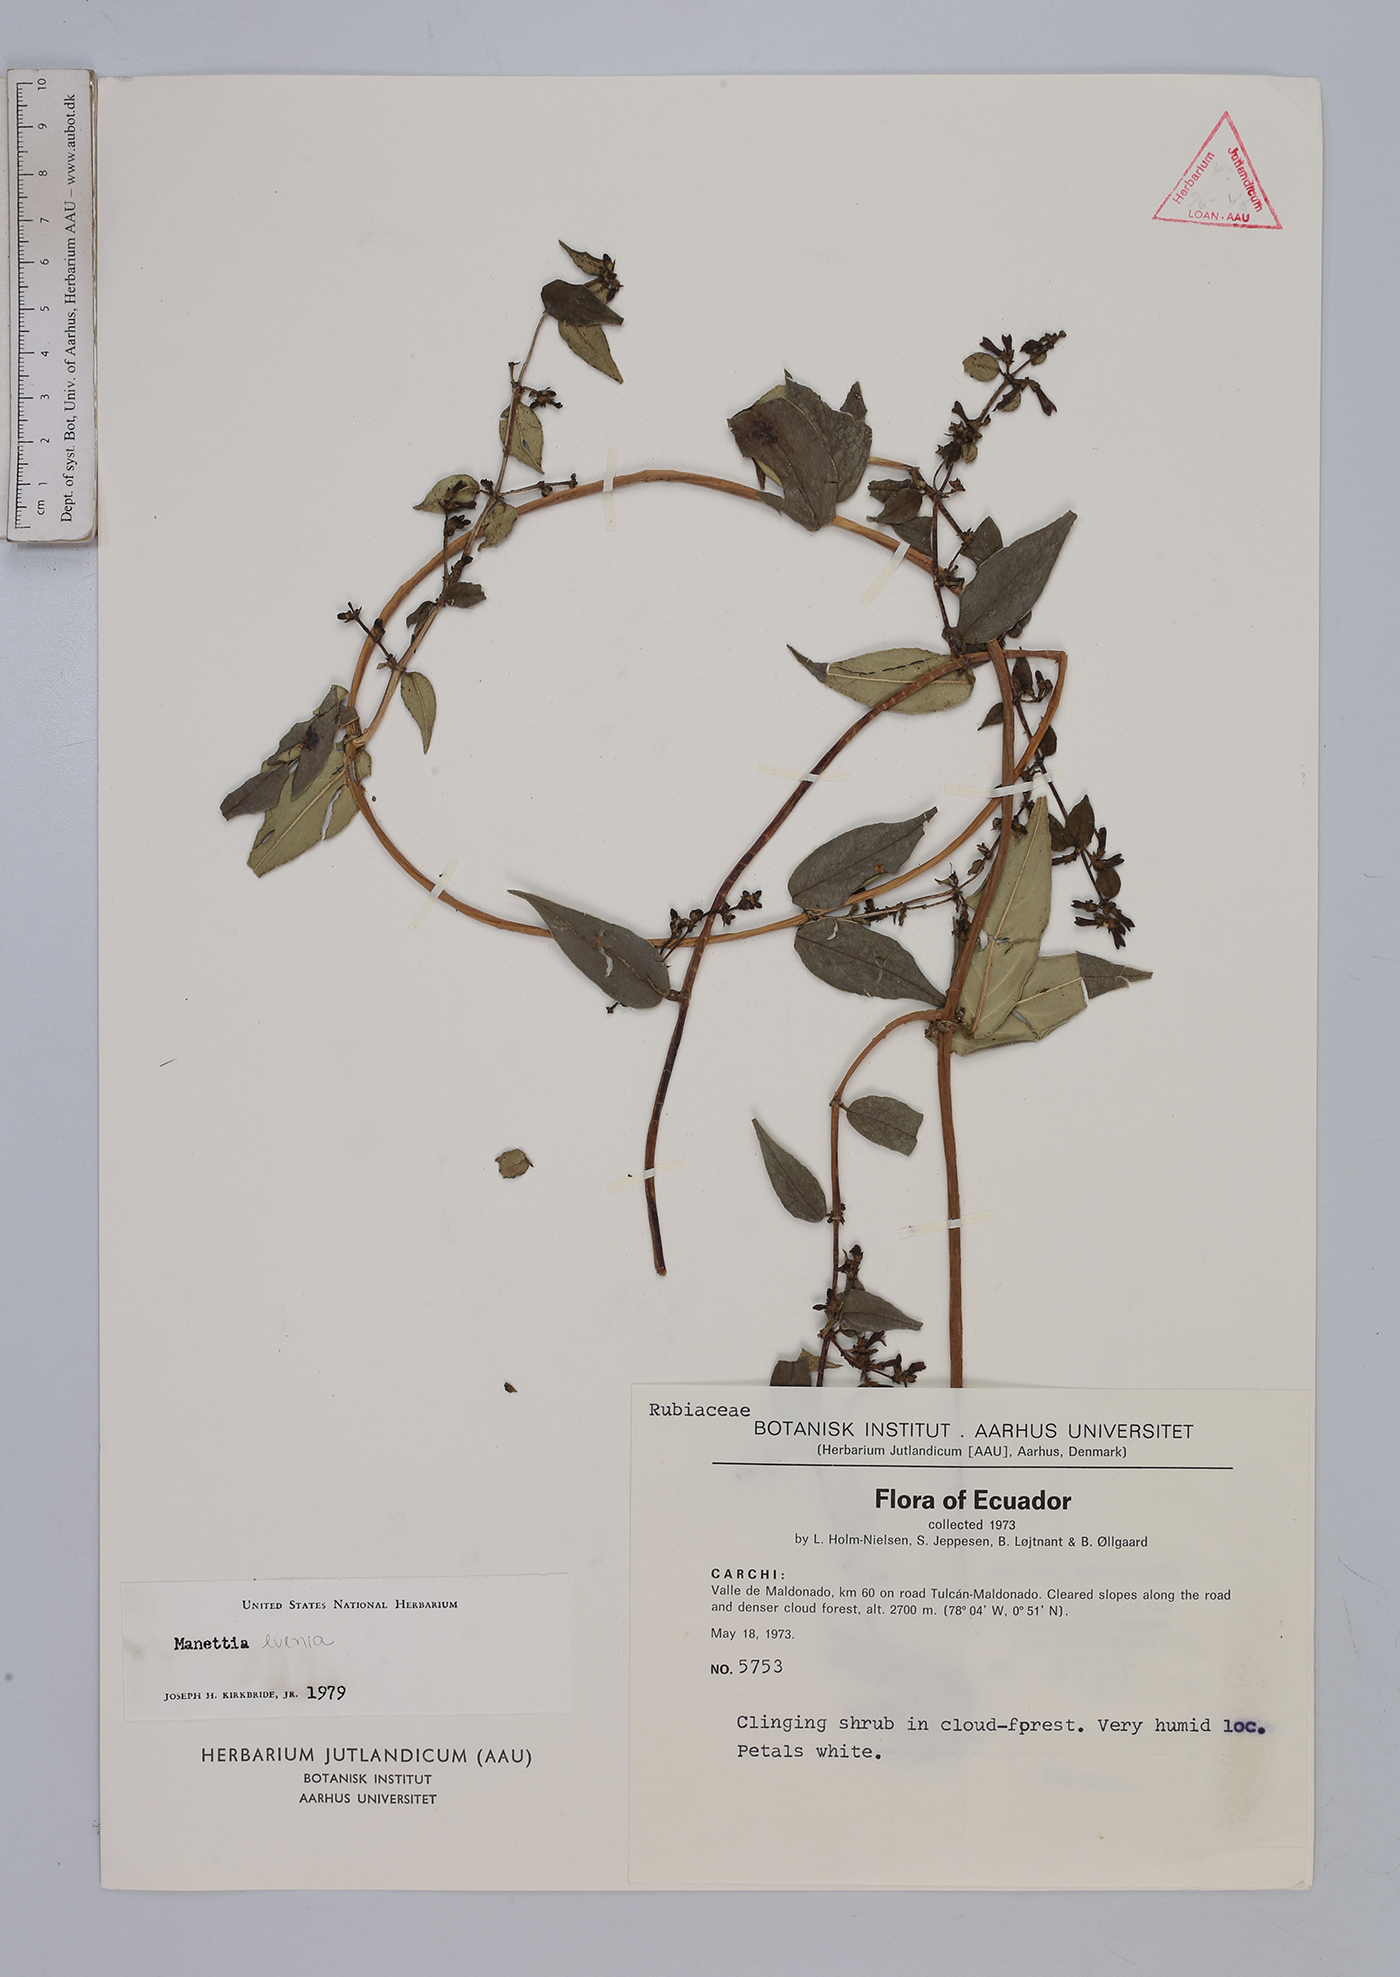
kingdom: Plantae
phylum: Tracheophyta
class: Magnoliopsida
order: Gentianales
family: Rubiaceae
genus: Manettia
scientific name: Manettia evenia
